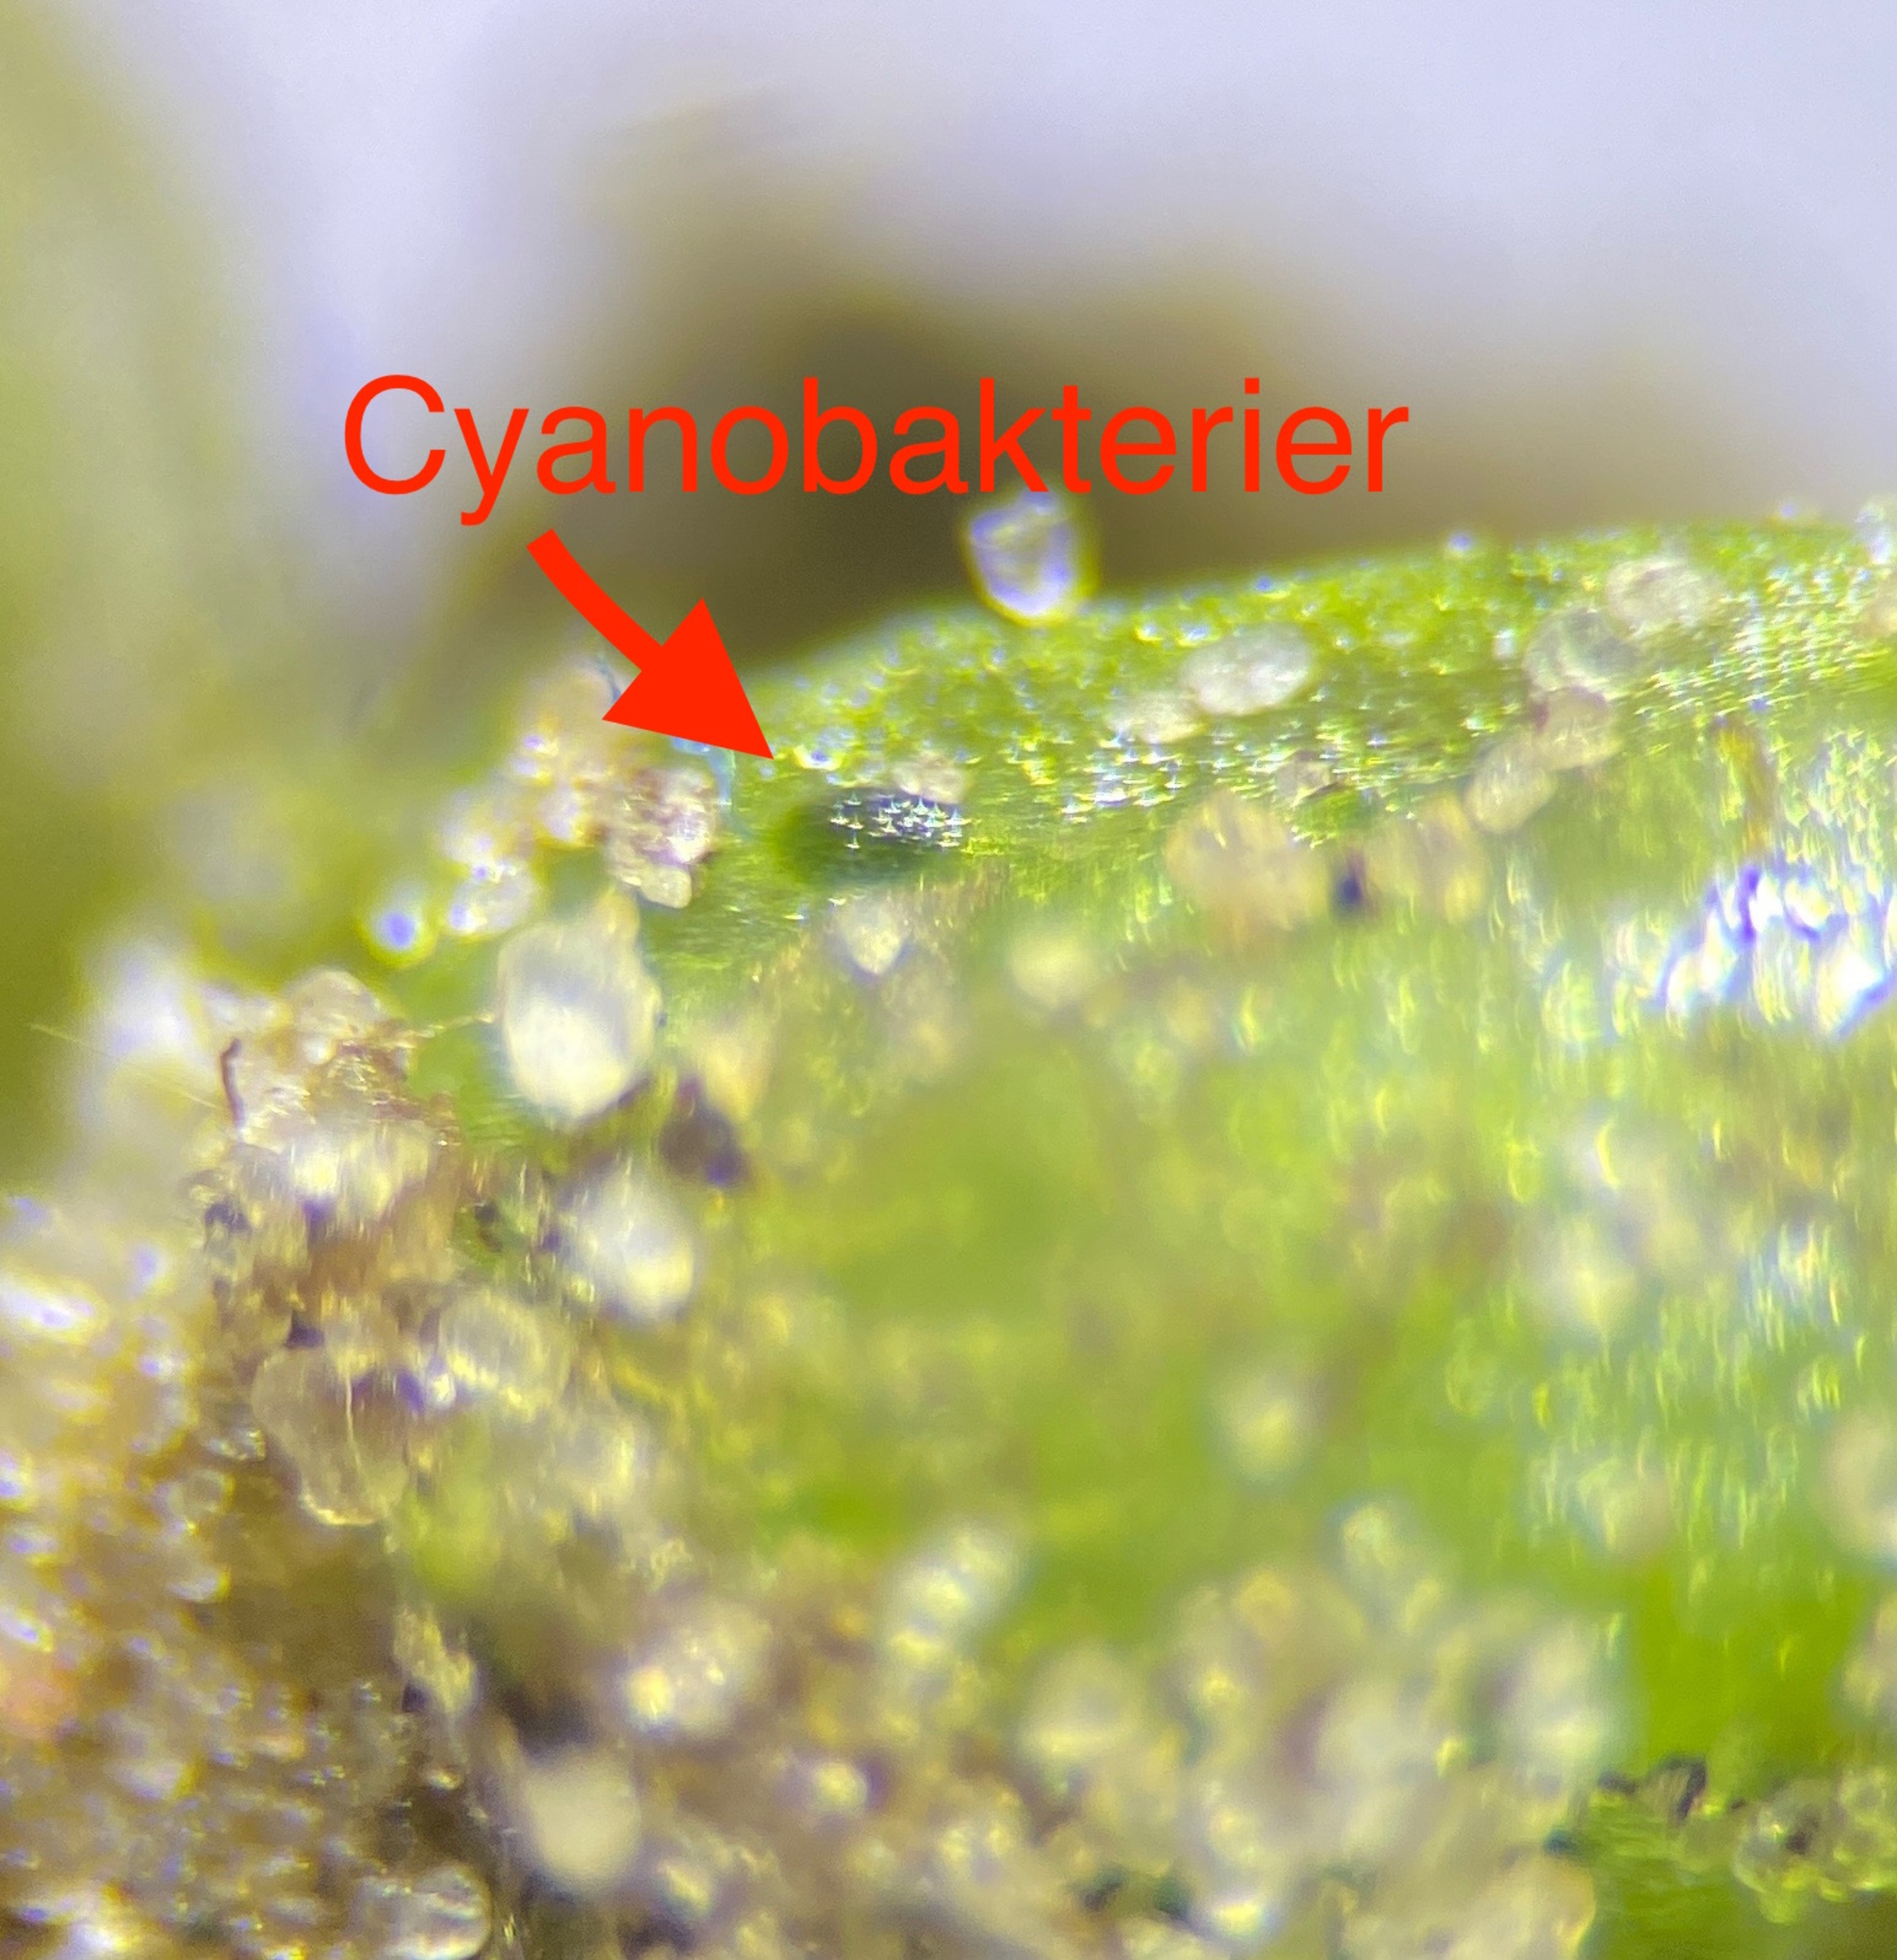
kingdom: Plantae
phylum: Marchantiophyta
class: Marchantiopsida
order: Blasiales
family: Blasiaceae
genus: Blasia
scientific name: Blasia pusilla
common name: Ager-prikløv
